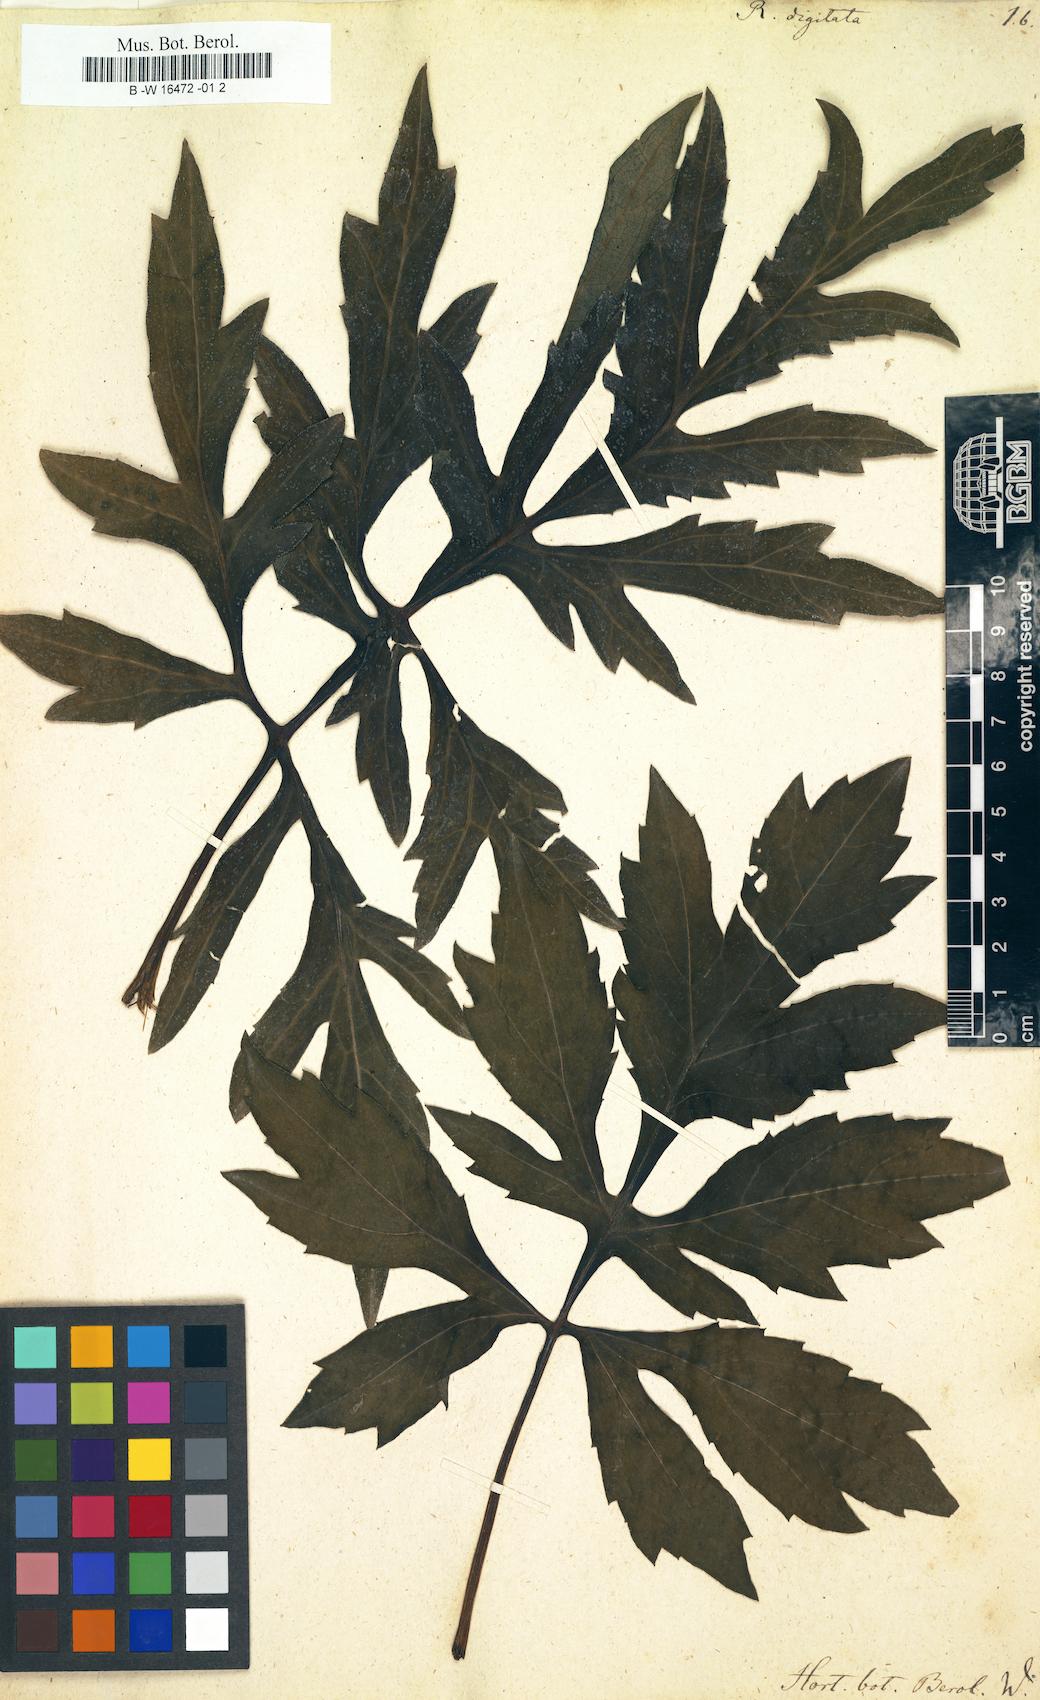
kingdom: Plantae
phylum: Tracheophyta
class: Magnoliopsida
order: Asterales
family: Asteraceae
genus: Rudbeckia
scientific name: Rudbeckia laciniata
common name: Coneflower
